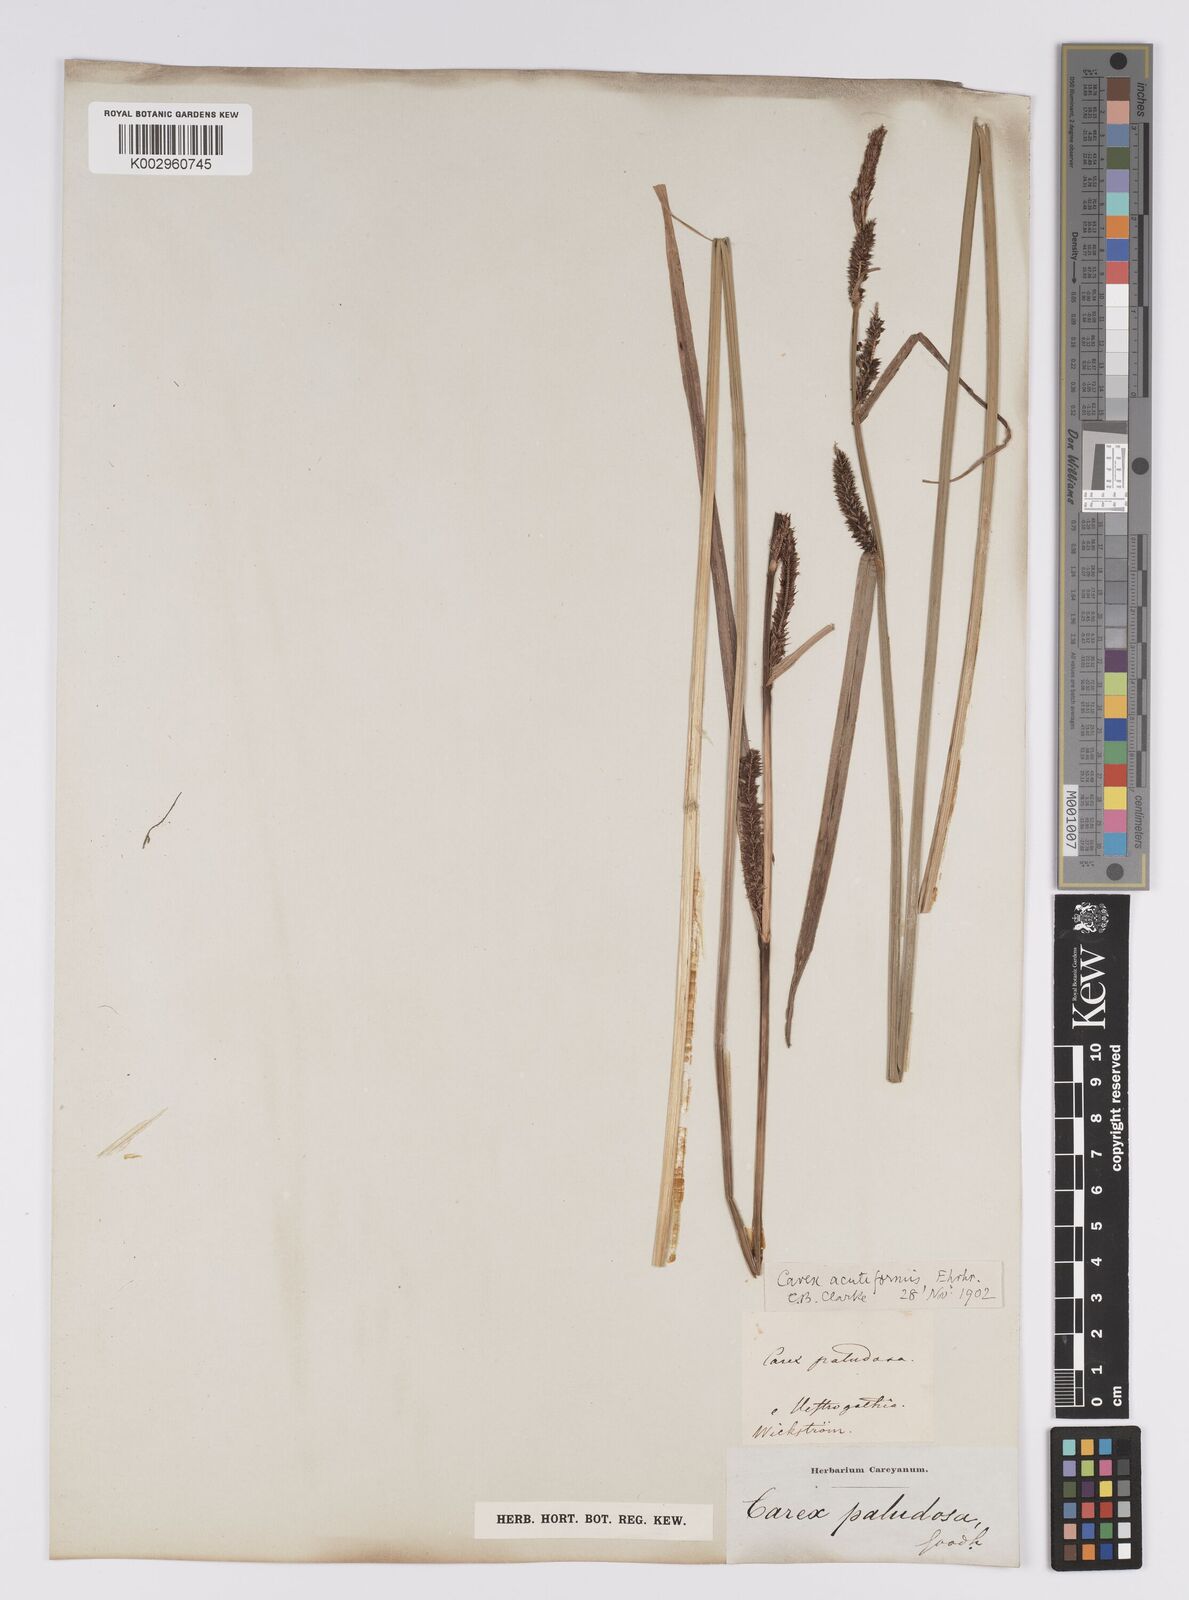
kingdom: Plantae
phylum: Tracheophyta
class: Liliopsida
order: Poales
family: Cyperaceae
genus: Carex
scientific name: Carex acutiformis
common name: Lesser pond-sedge
